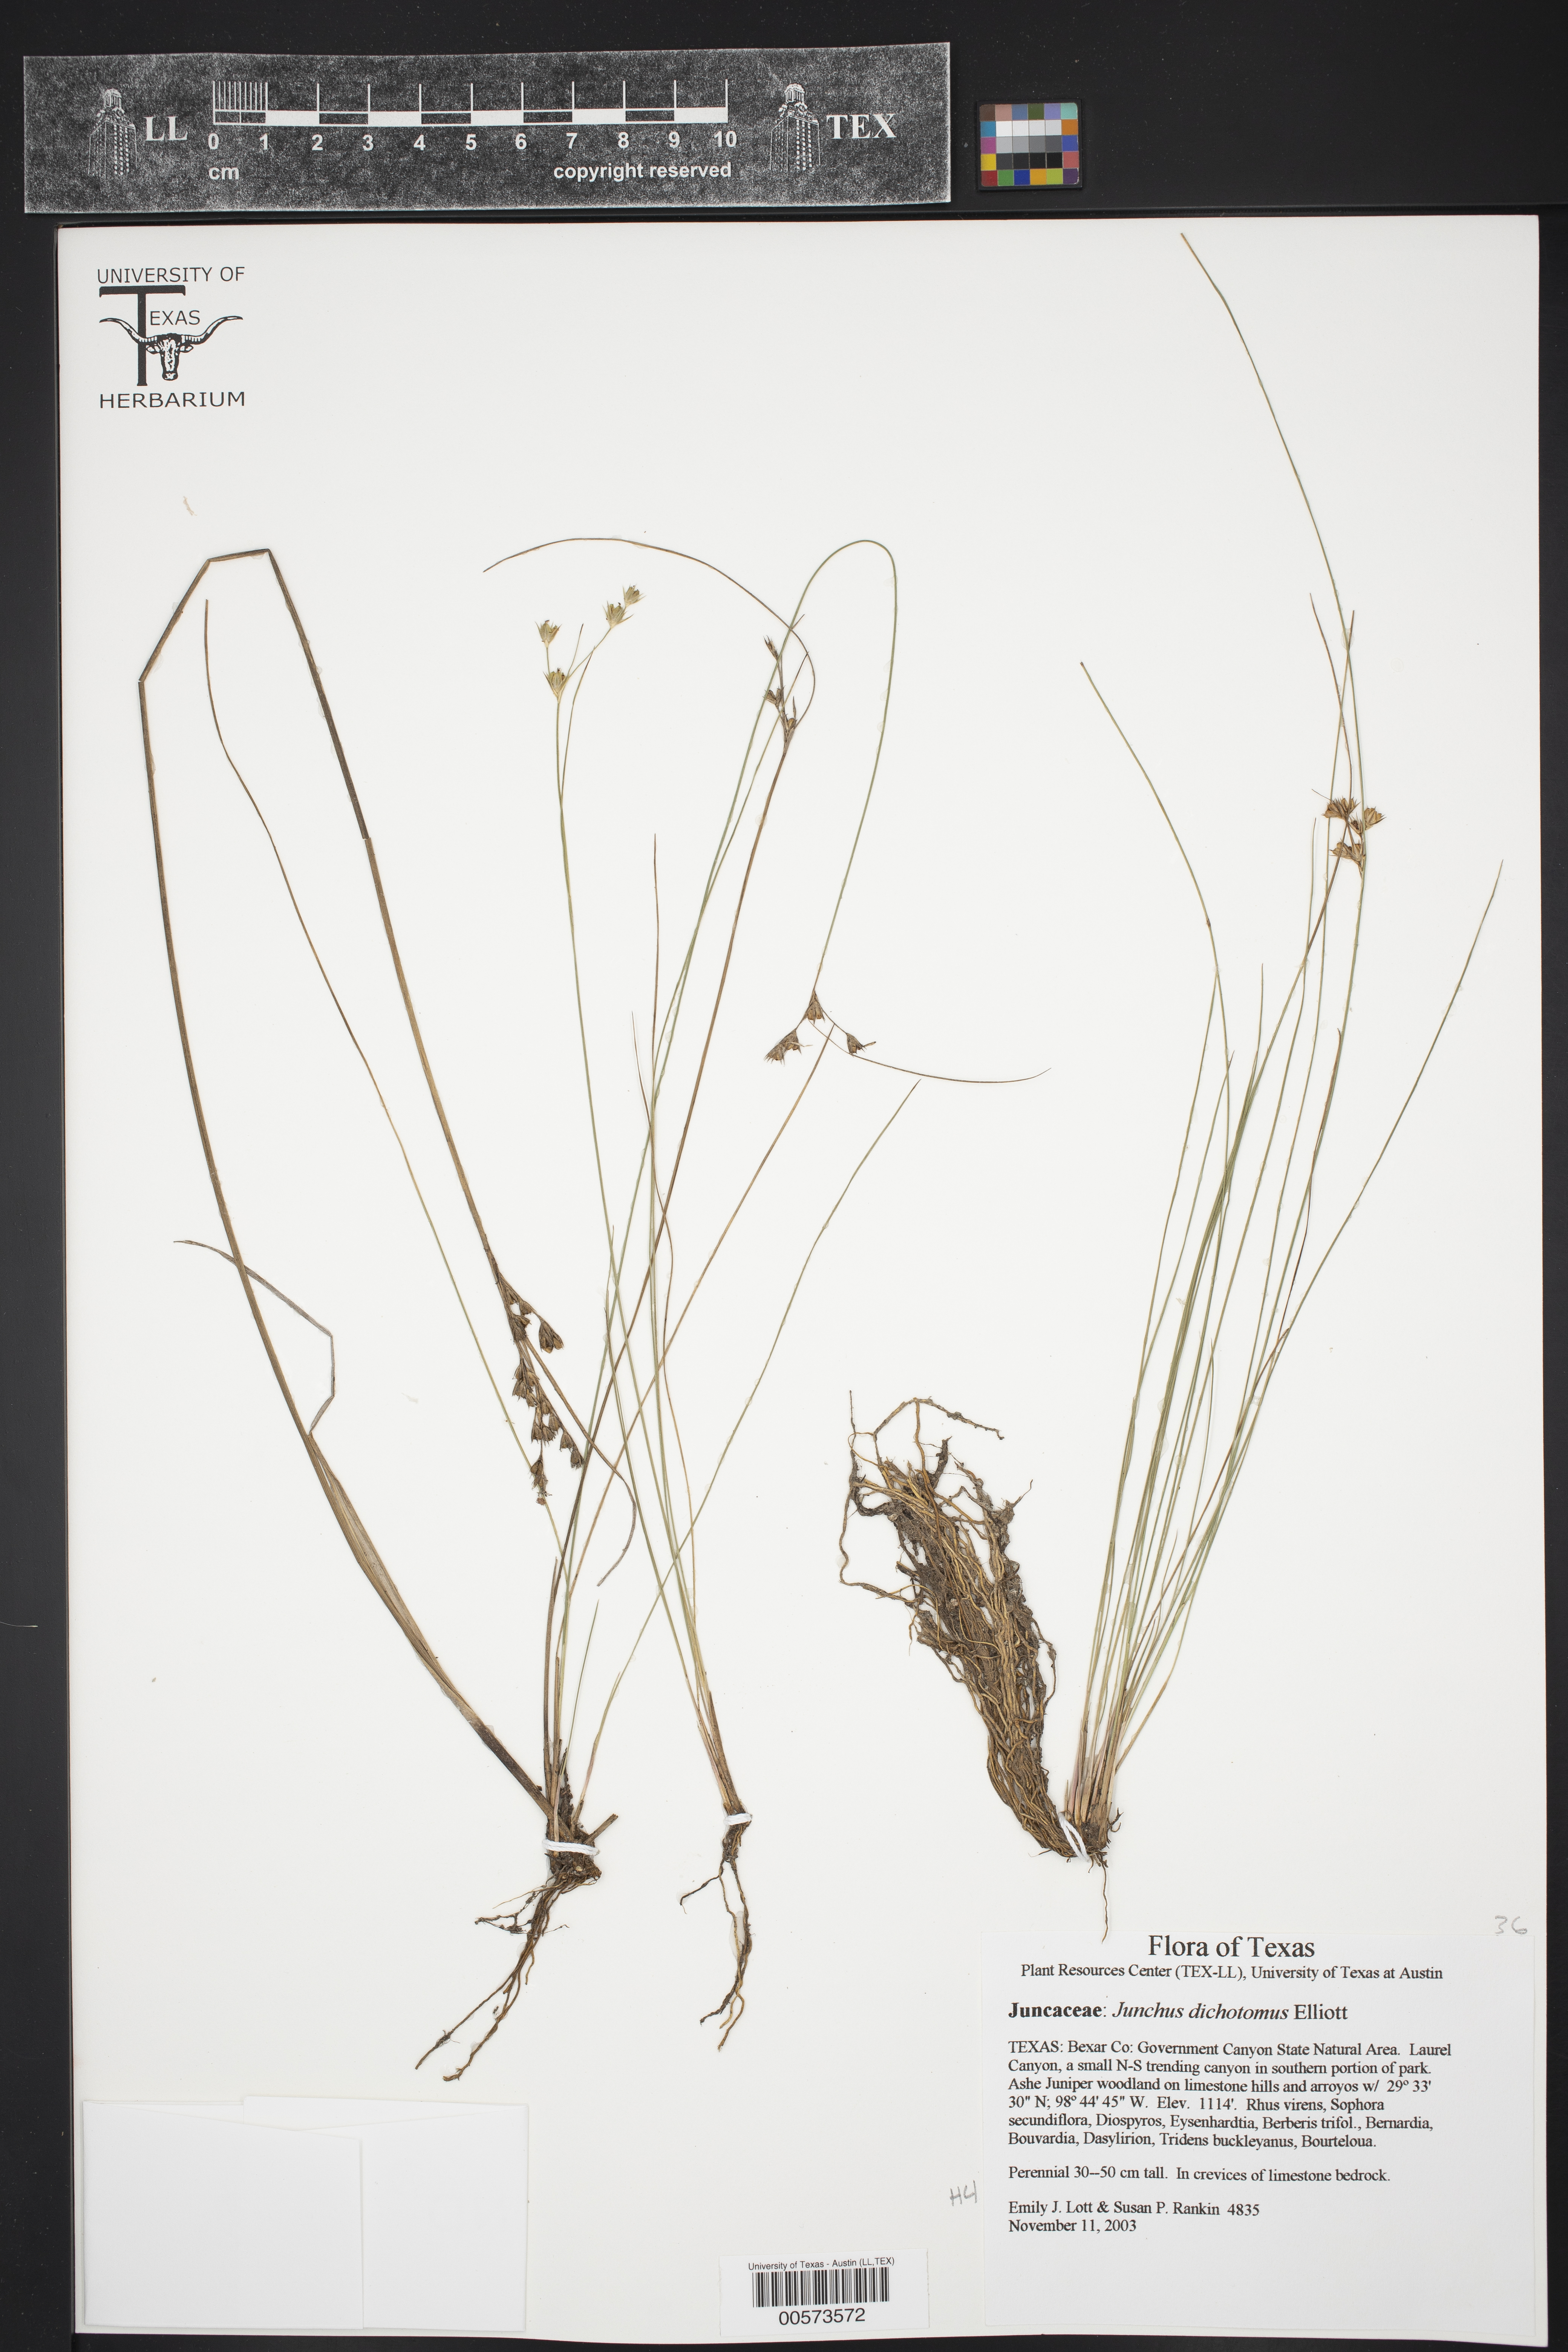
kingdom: Plantae
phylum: Tracheophyta
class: Liliopsida
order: Poales
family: Juncaceae
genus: Juncus
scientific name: Juncus dichotomus
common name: Forked rush
